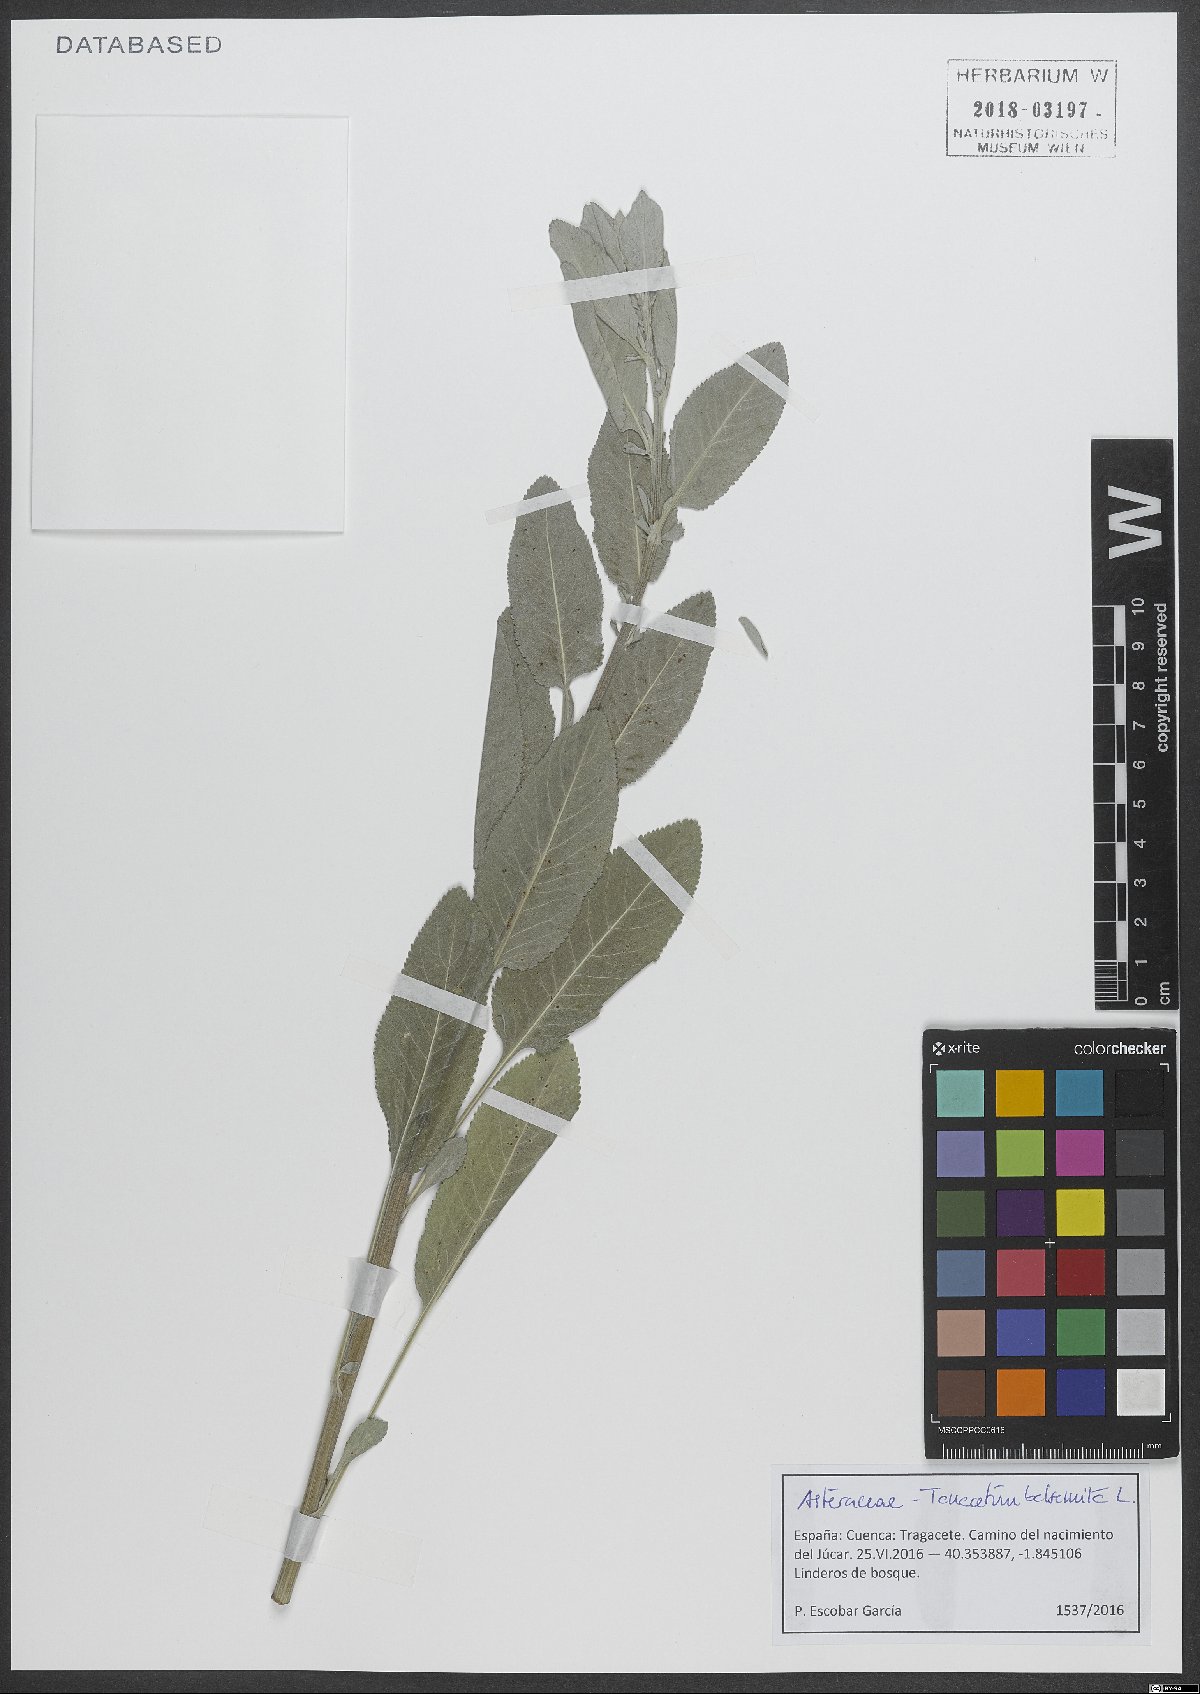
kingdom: Plantae
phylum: Tracheophyta
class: Magnoliopsida
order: Asterales
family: Asteraceae
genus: Tanacetum
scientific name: Tanacetum balsamita
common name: Costmary
